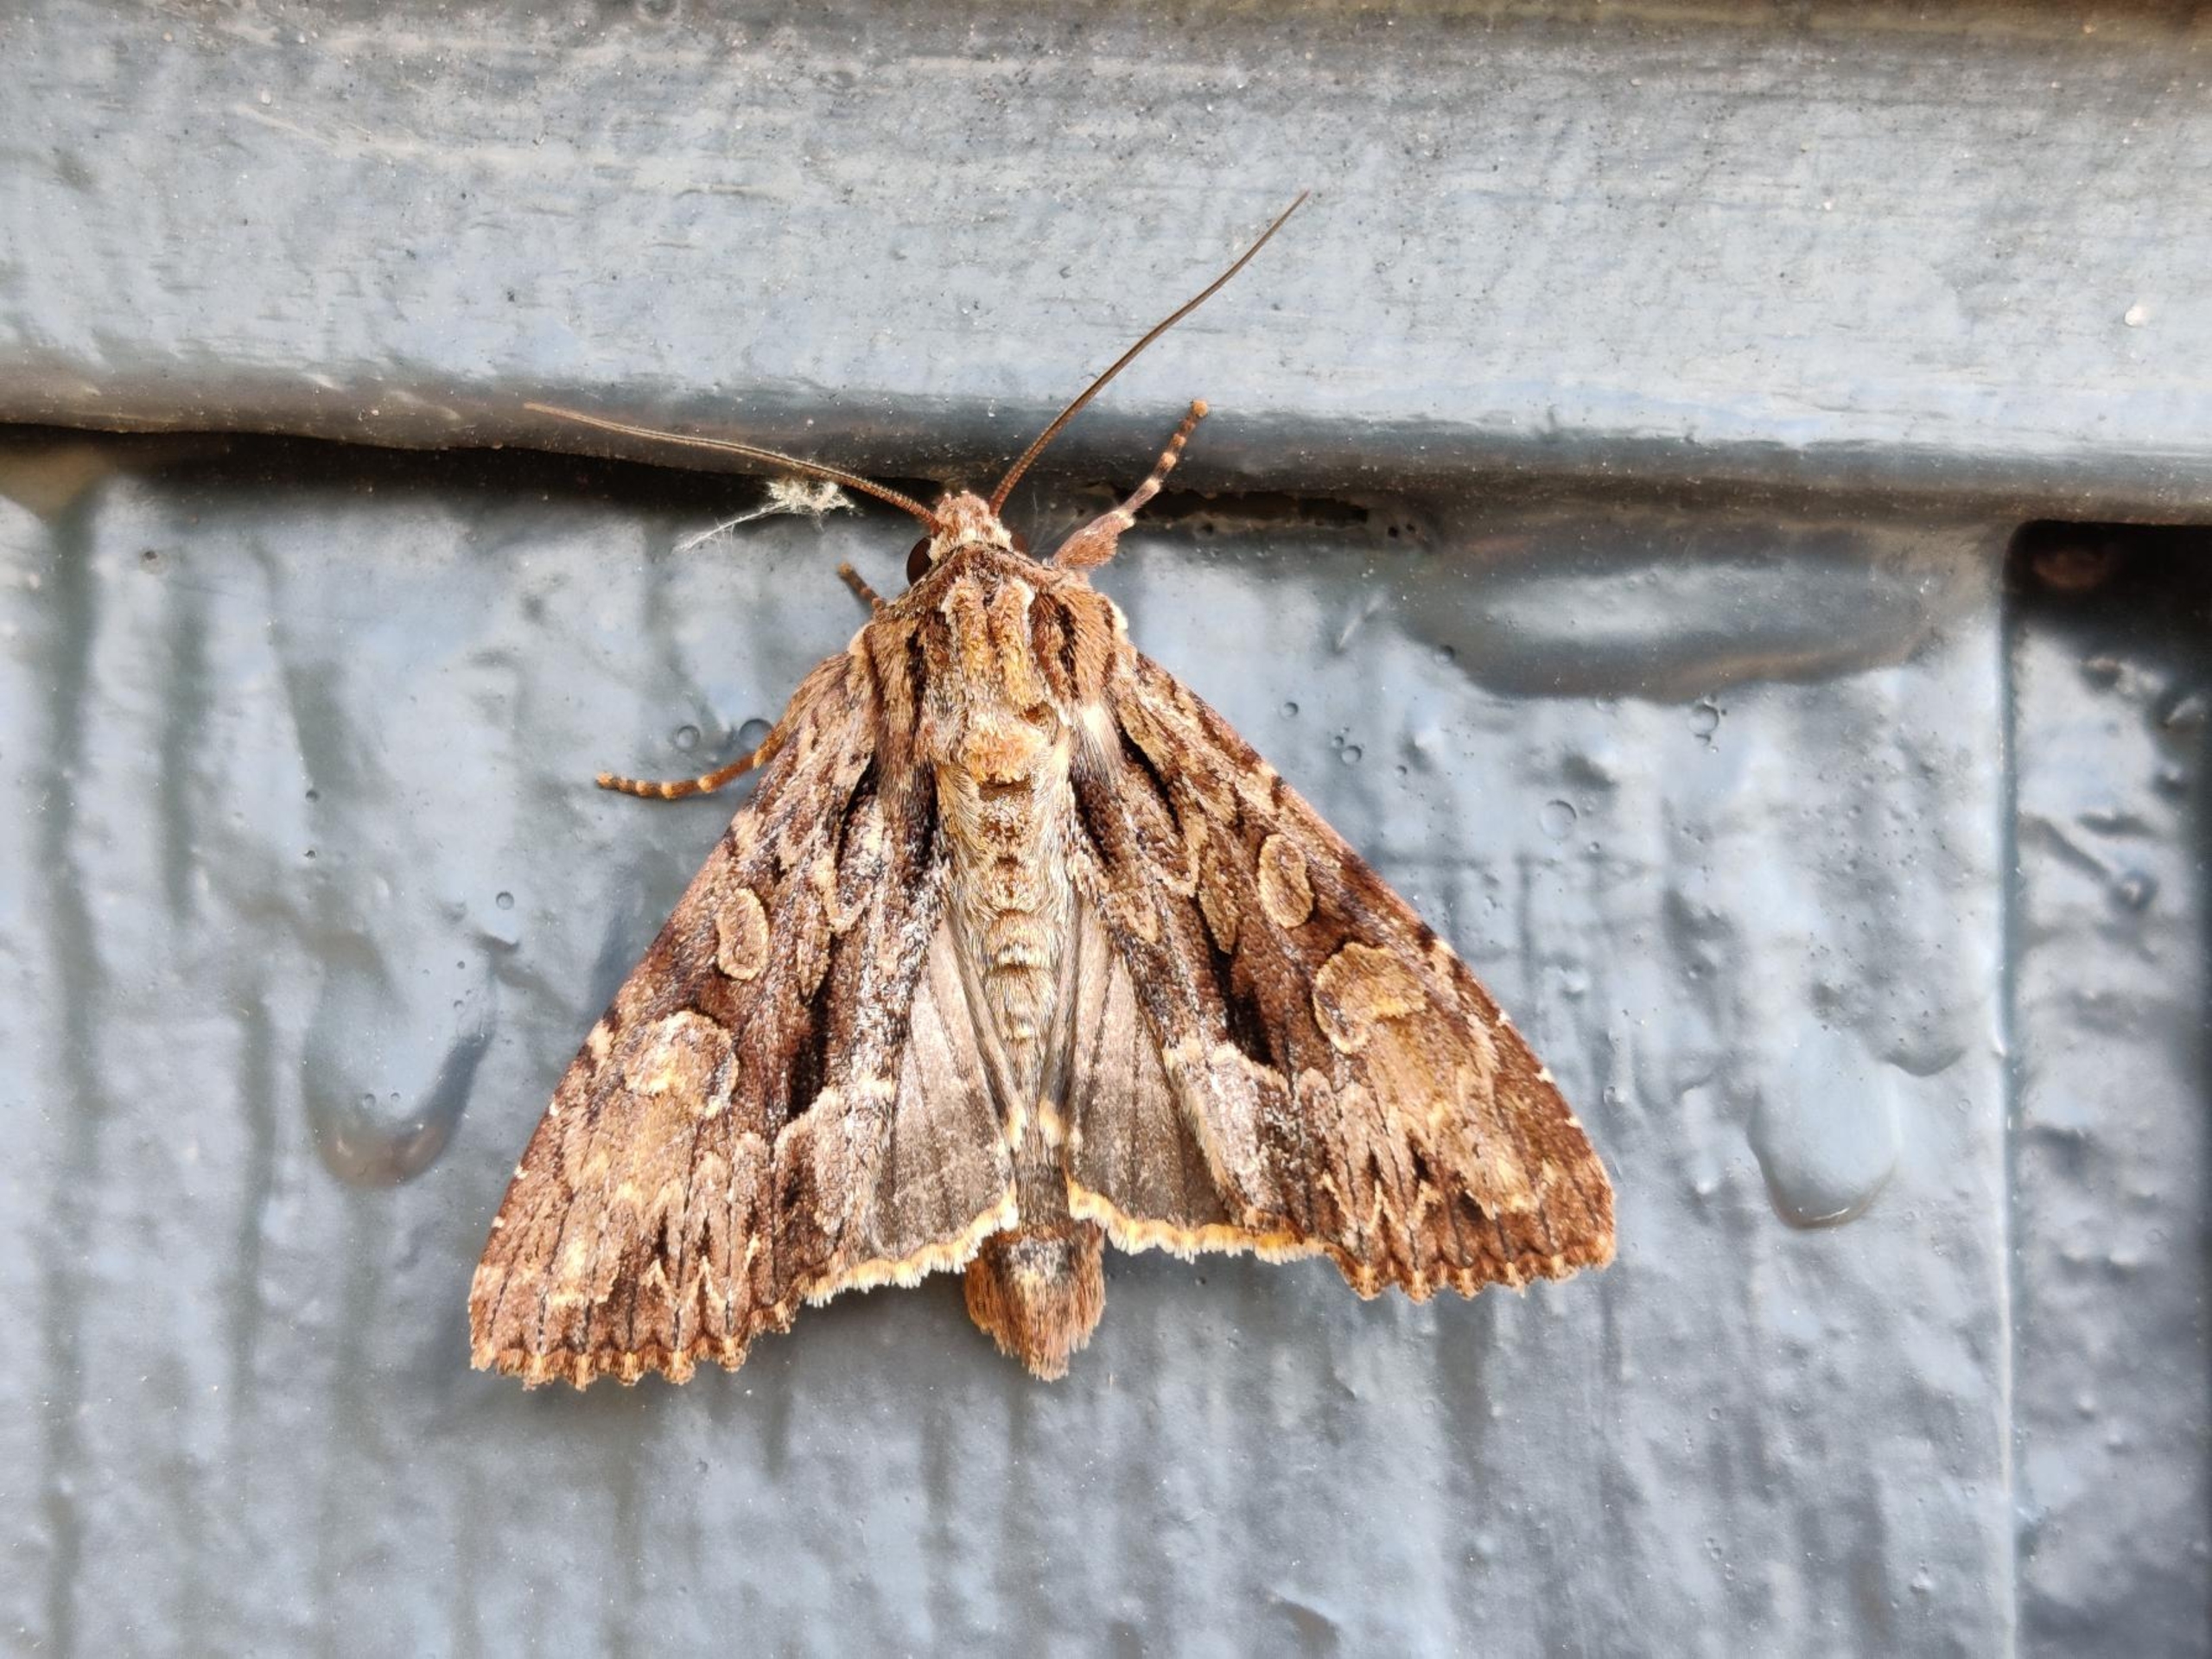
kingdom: Animalia
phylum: Arthropoda
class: Insecta
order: Lepidoptera
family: Noctuidae
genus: Apamea
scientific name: Apamea monoglypha
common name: Jordugle
